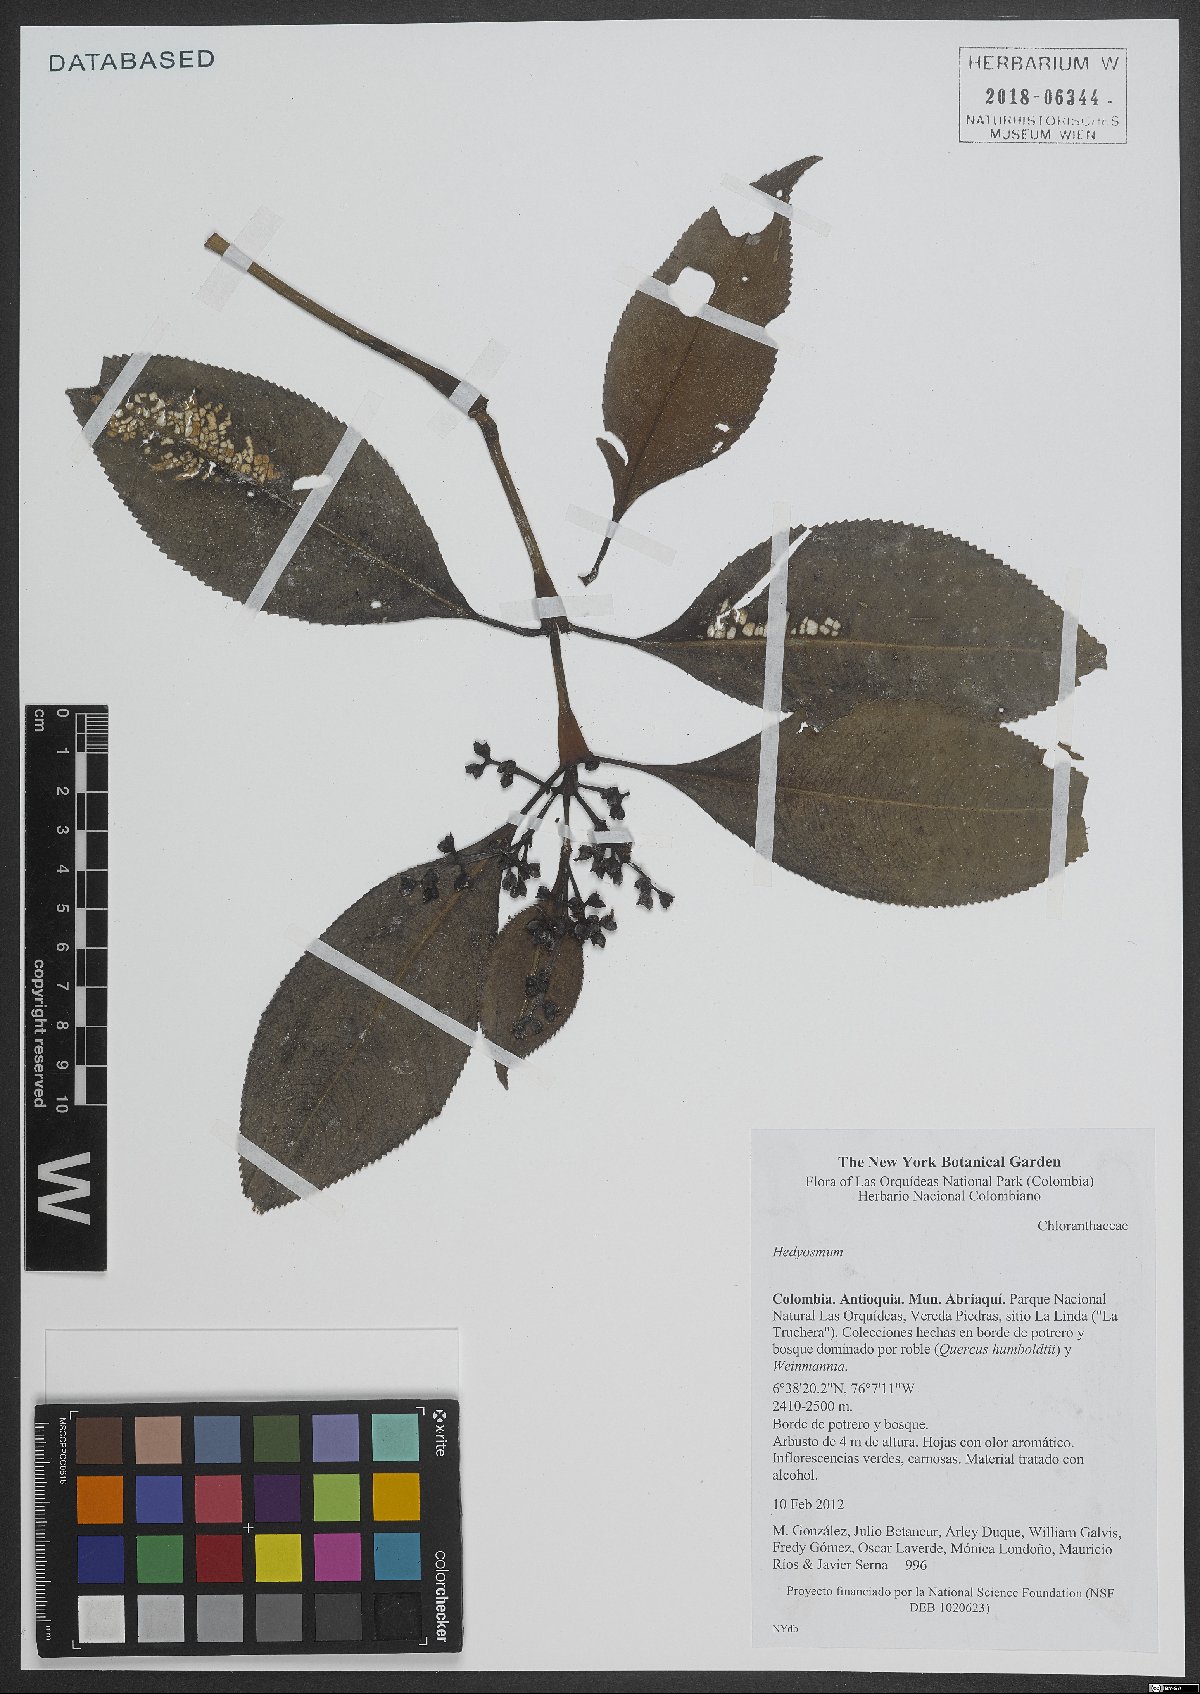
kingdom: Plantae
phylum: Tracheophyta
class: Magnoliopsida
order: Chloranthales
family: Chloranthaceae
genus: Hedyosmum
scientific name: Hedyosmum
